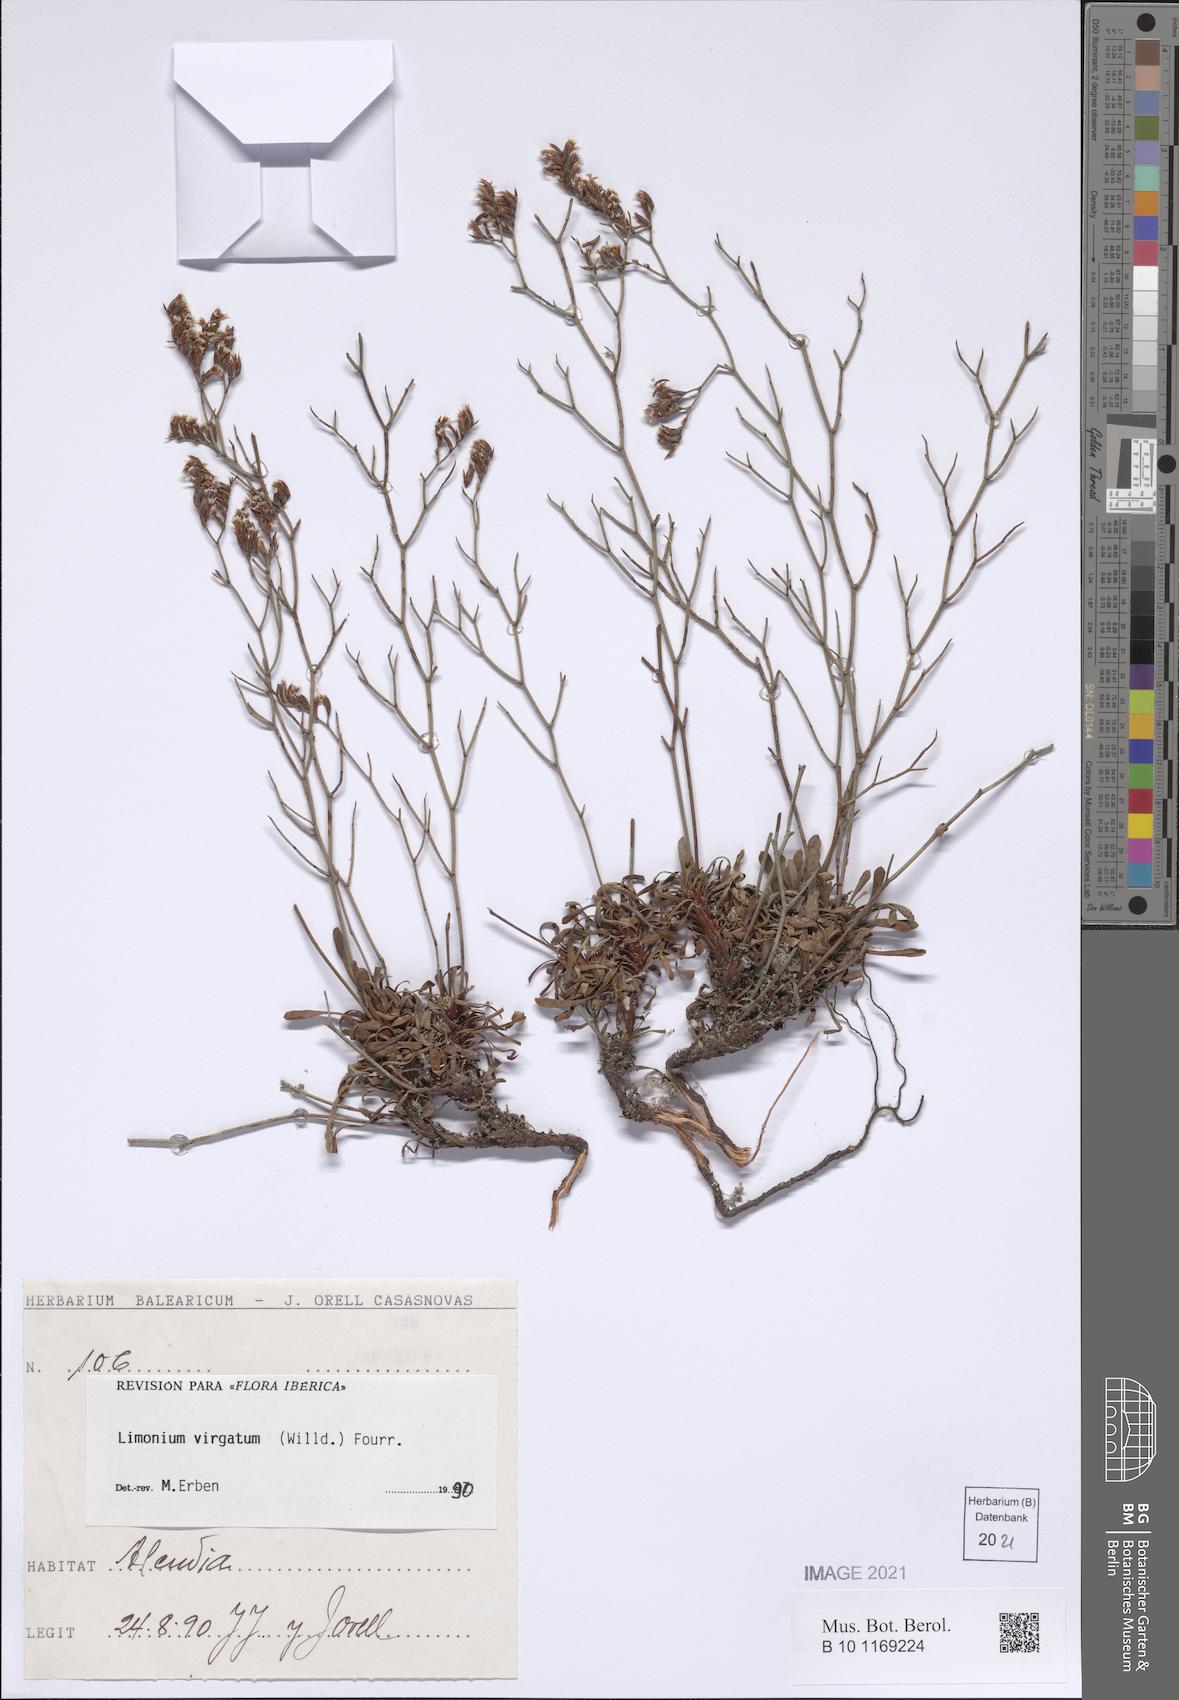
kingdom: Plantae
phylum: Tracheophyta
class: Magnoliopsida
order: Caryophyllales
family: Plumbaginaceae
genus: Limonium
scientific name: Limonium virgatum
